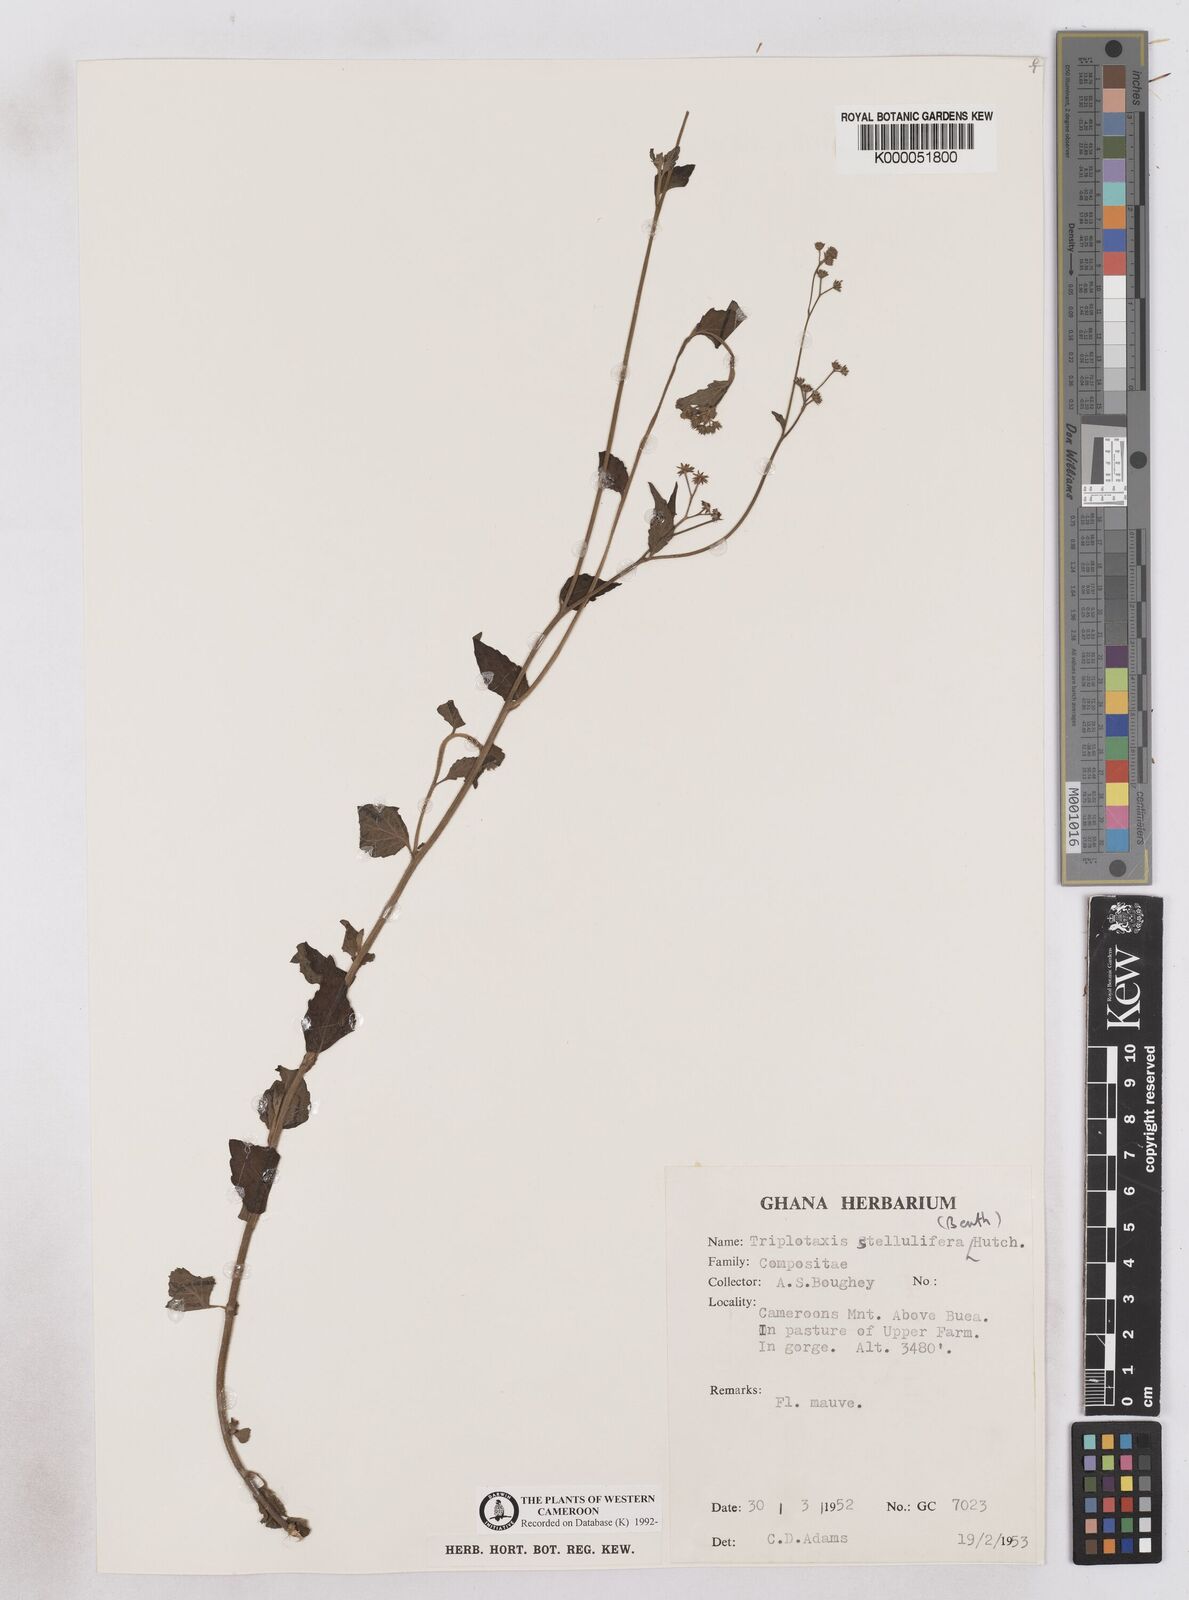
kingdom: Plantae
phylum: Tracheophyta
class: Magnoliopsida
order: Asterales
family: Asteraceae
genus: Cyanthillium
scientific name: Cyanthillium stelluliferum
